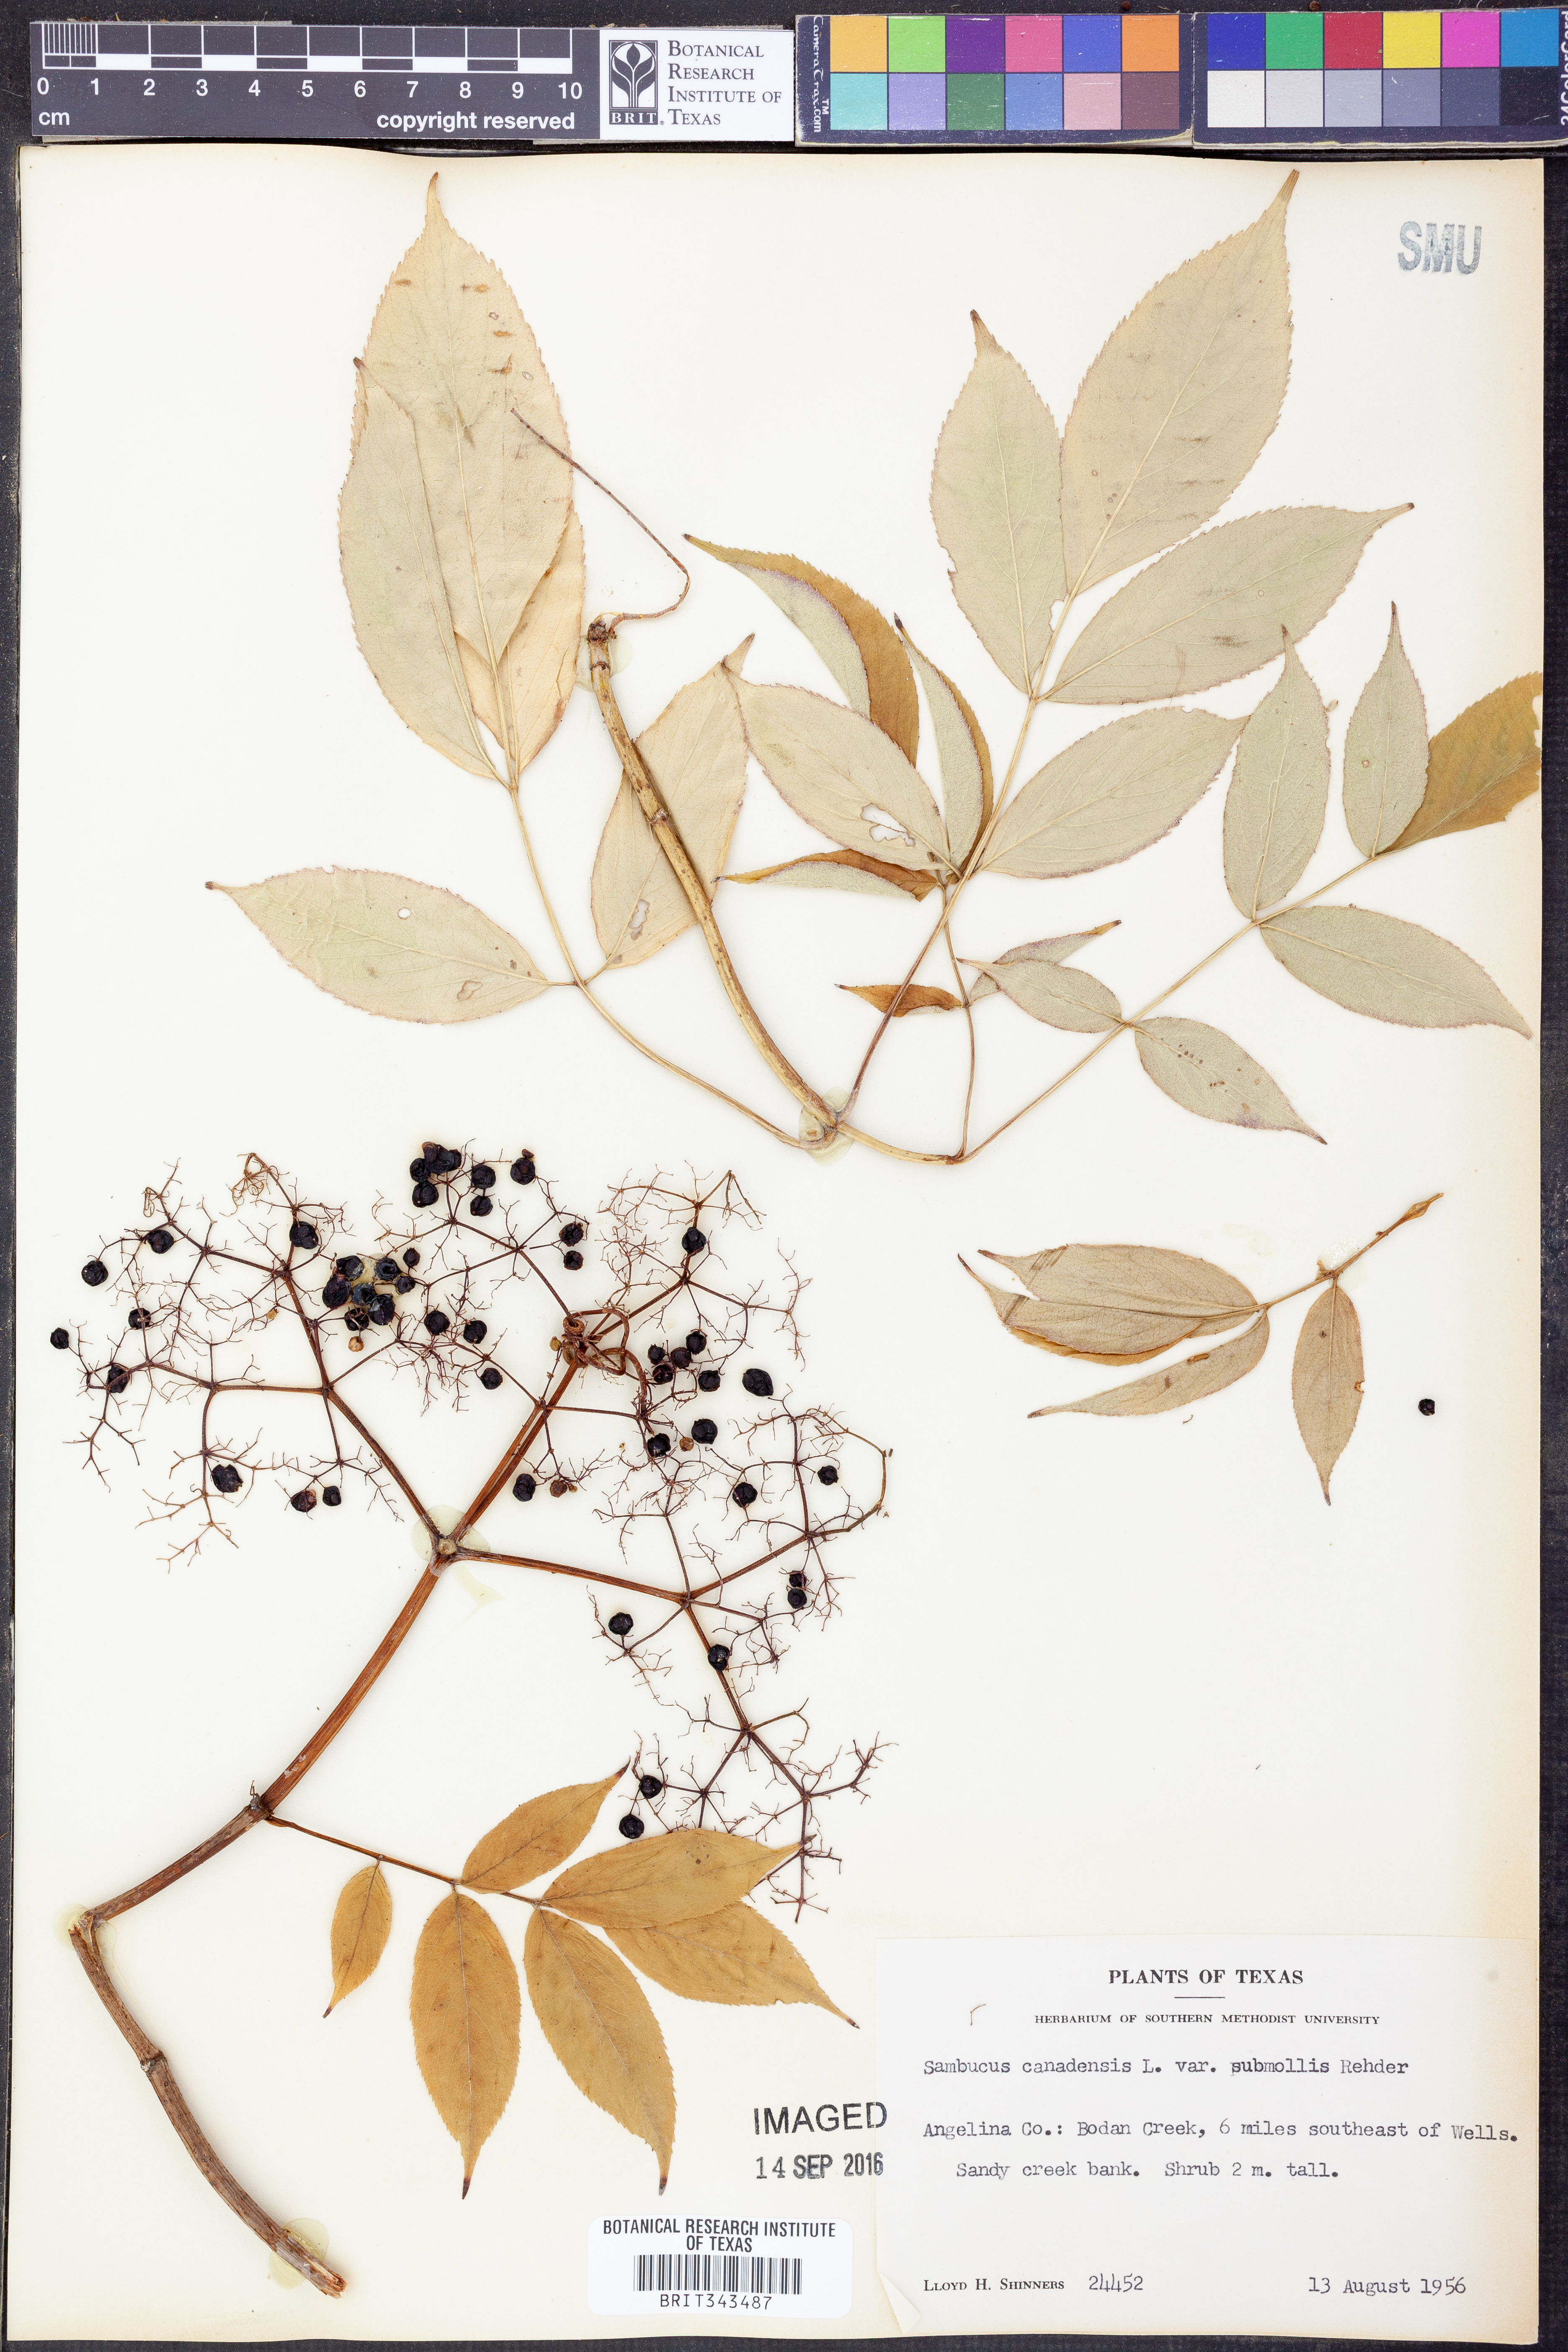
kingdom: Plantae
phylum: Tracheophyta
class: Magnoliopsida
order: Dipsacales
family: Viburnaceae
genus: Sambucus
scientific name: Sambucus canadensis
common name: American elder
